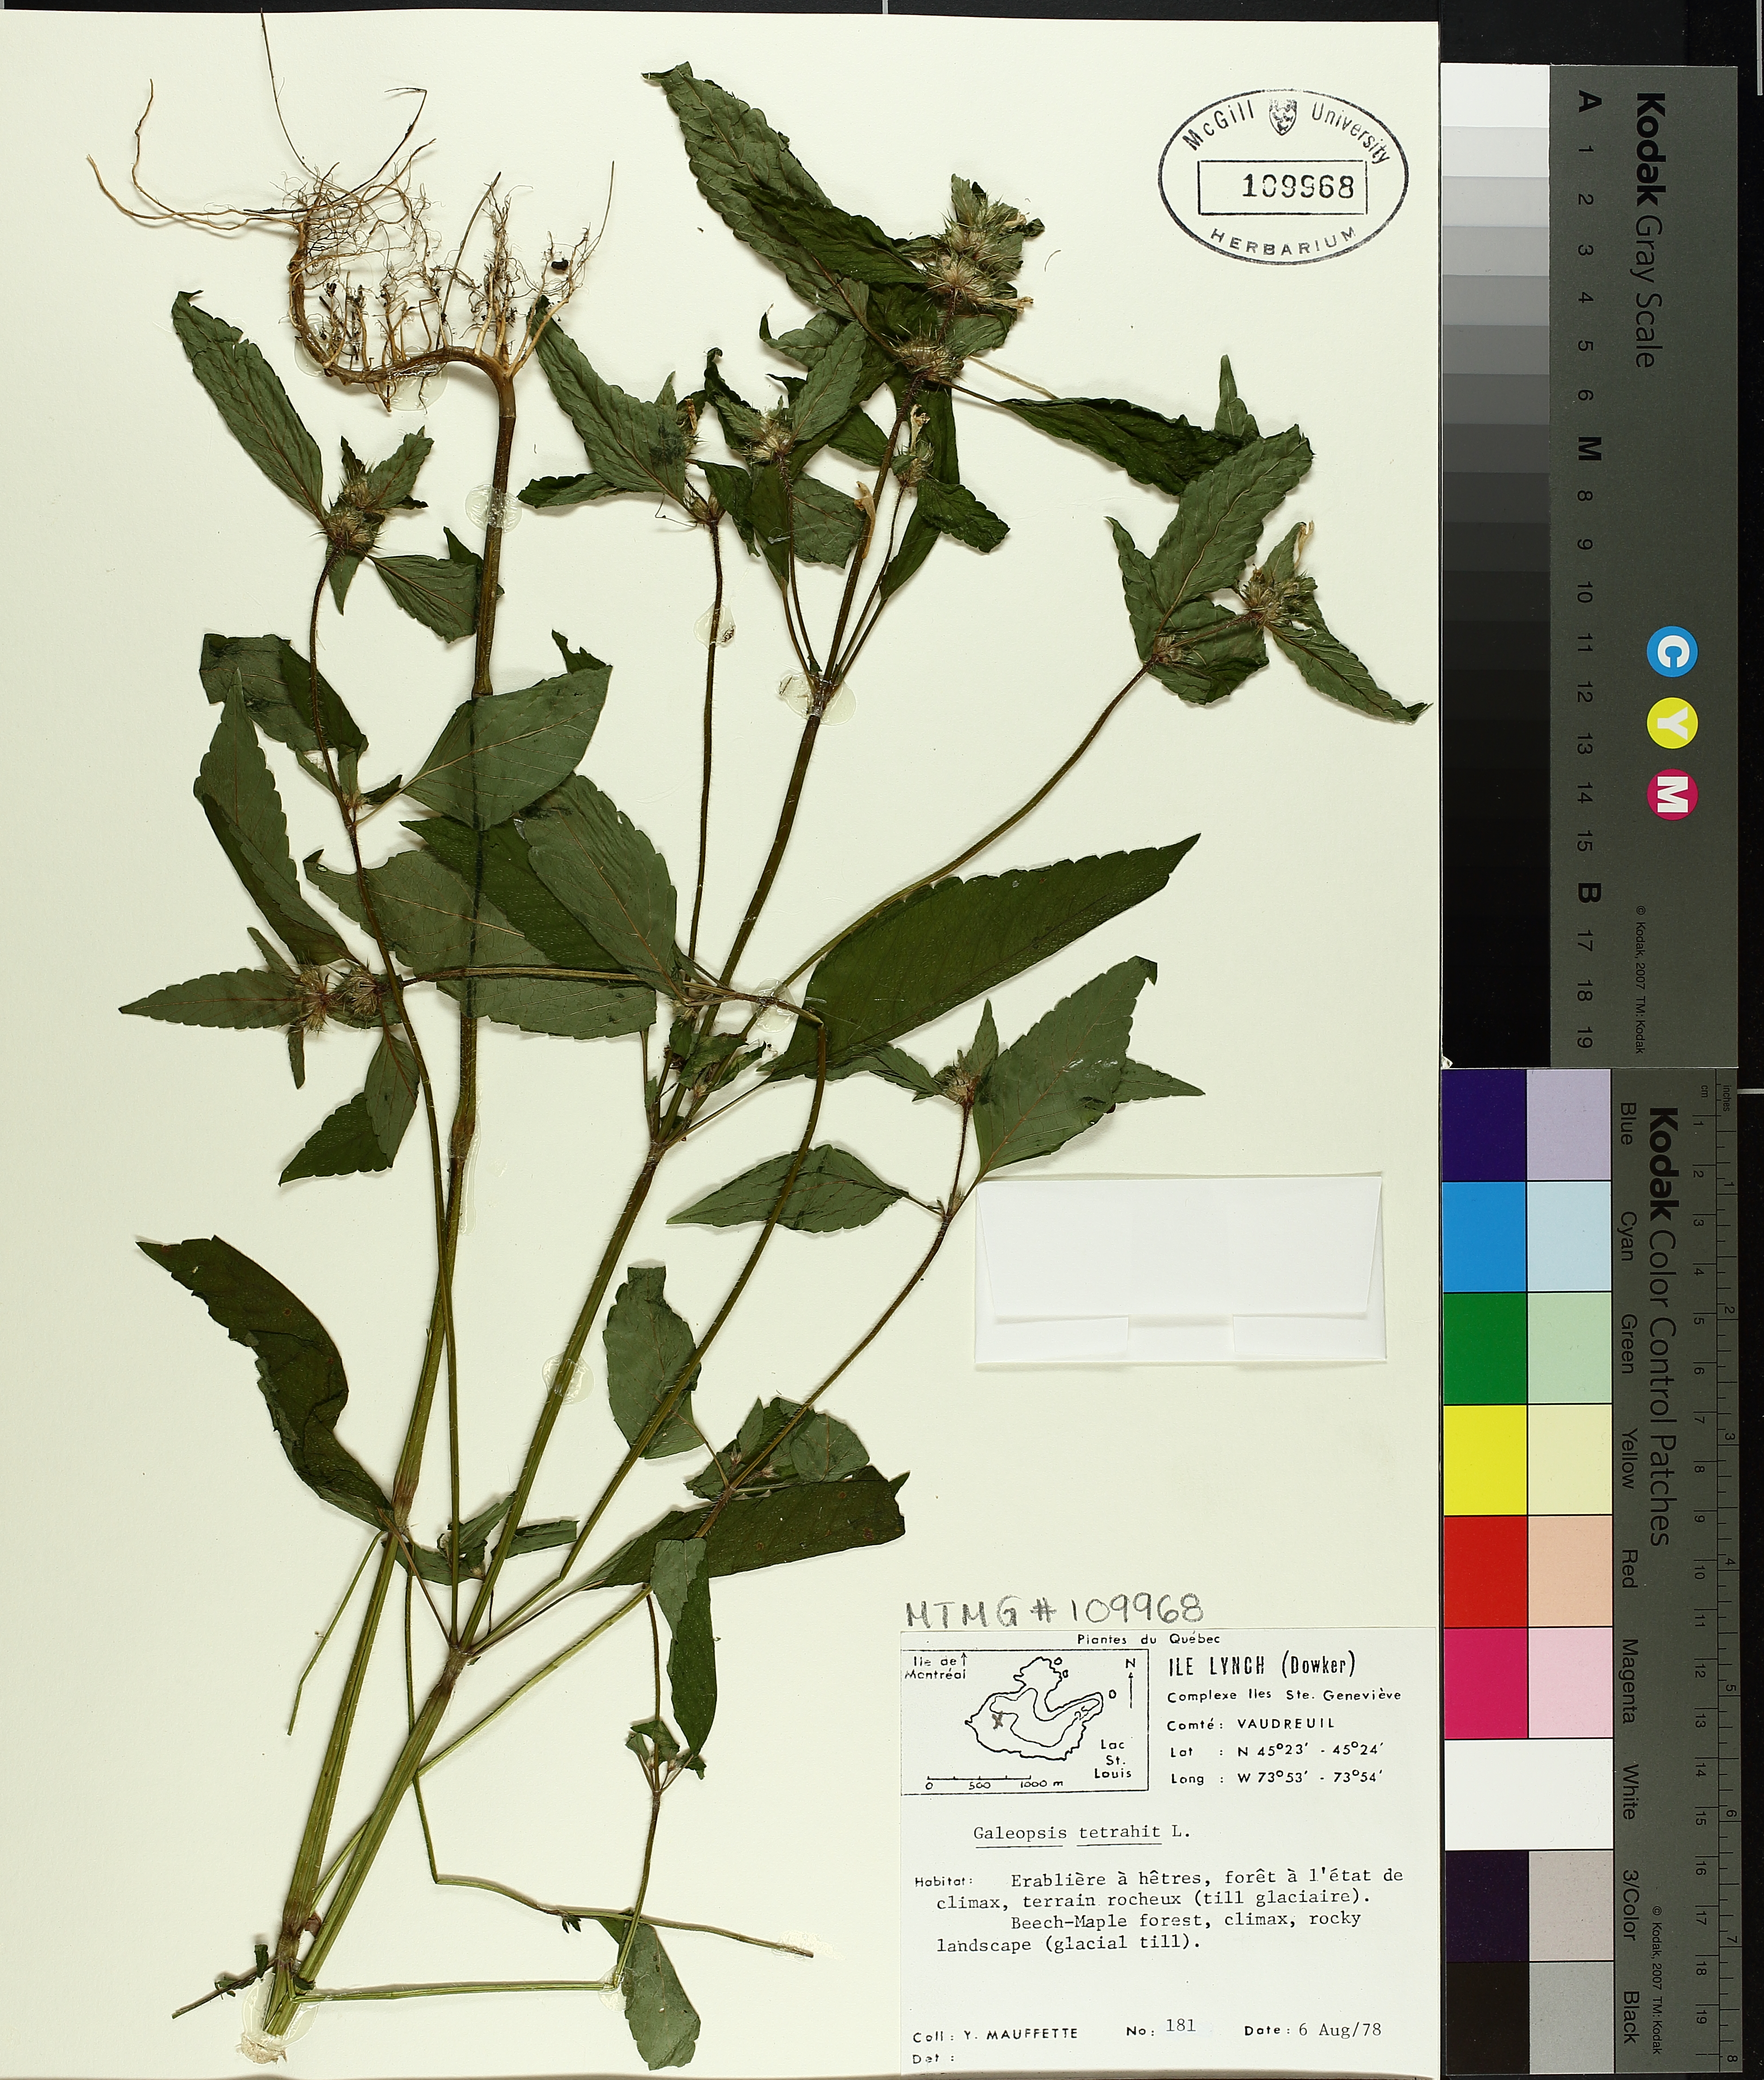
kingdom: Plantae
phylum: Tracheophyta
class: Magnoliopsida
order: Lamiales
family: Lamiaceae
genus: Galeopsis
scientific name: Galeopsis tetrahit
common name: Common hemp-nettle
